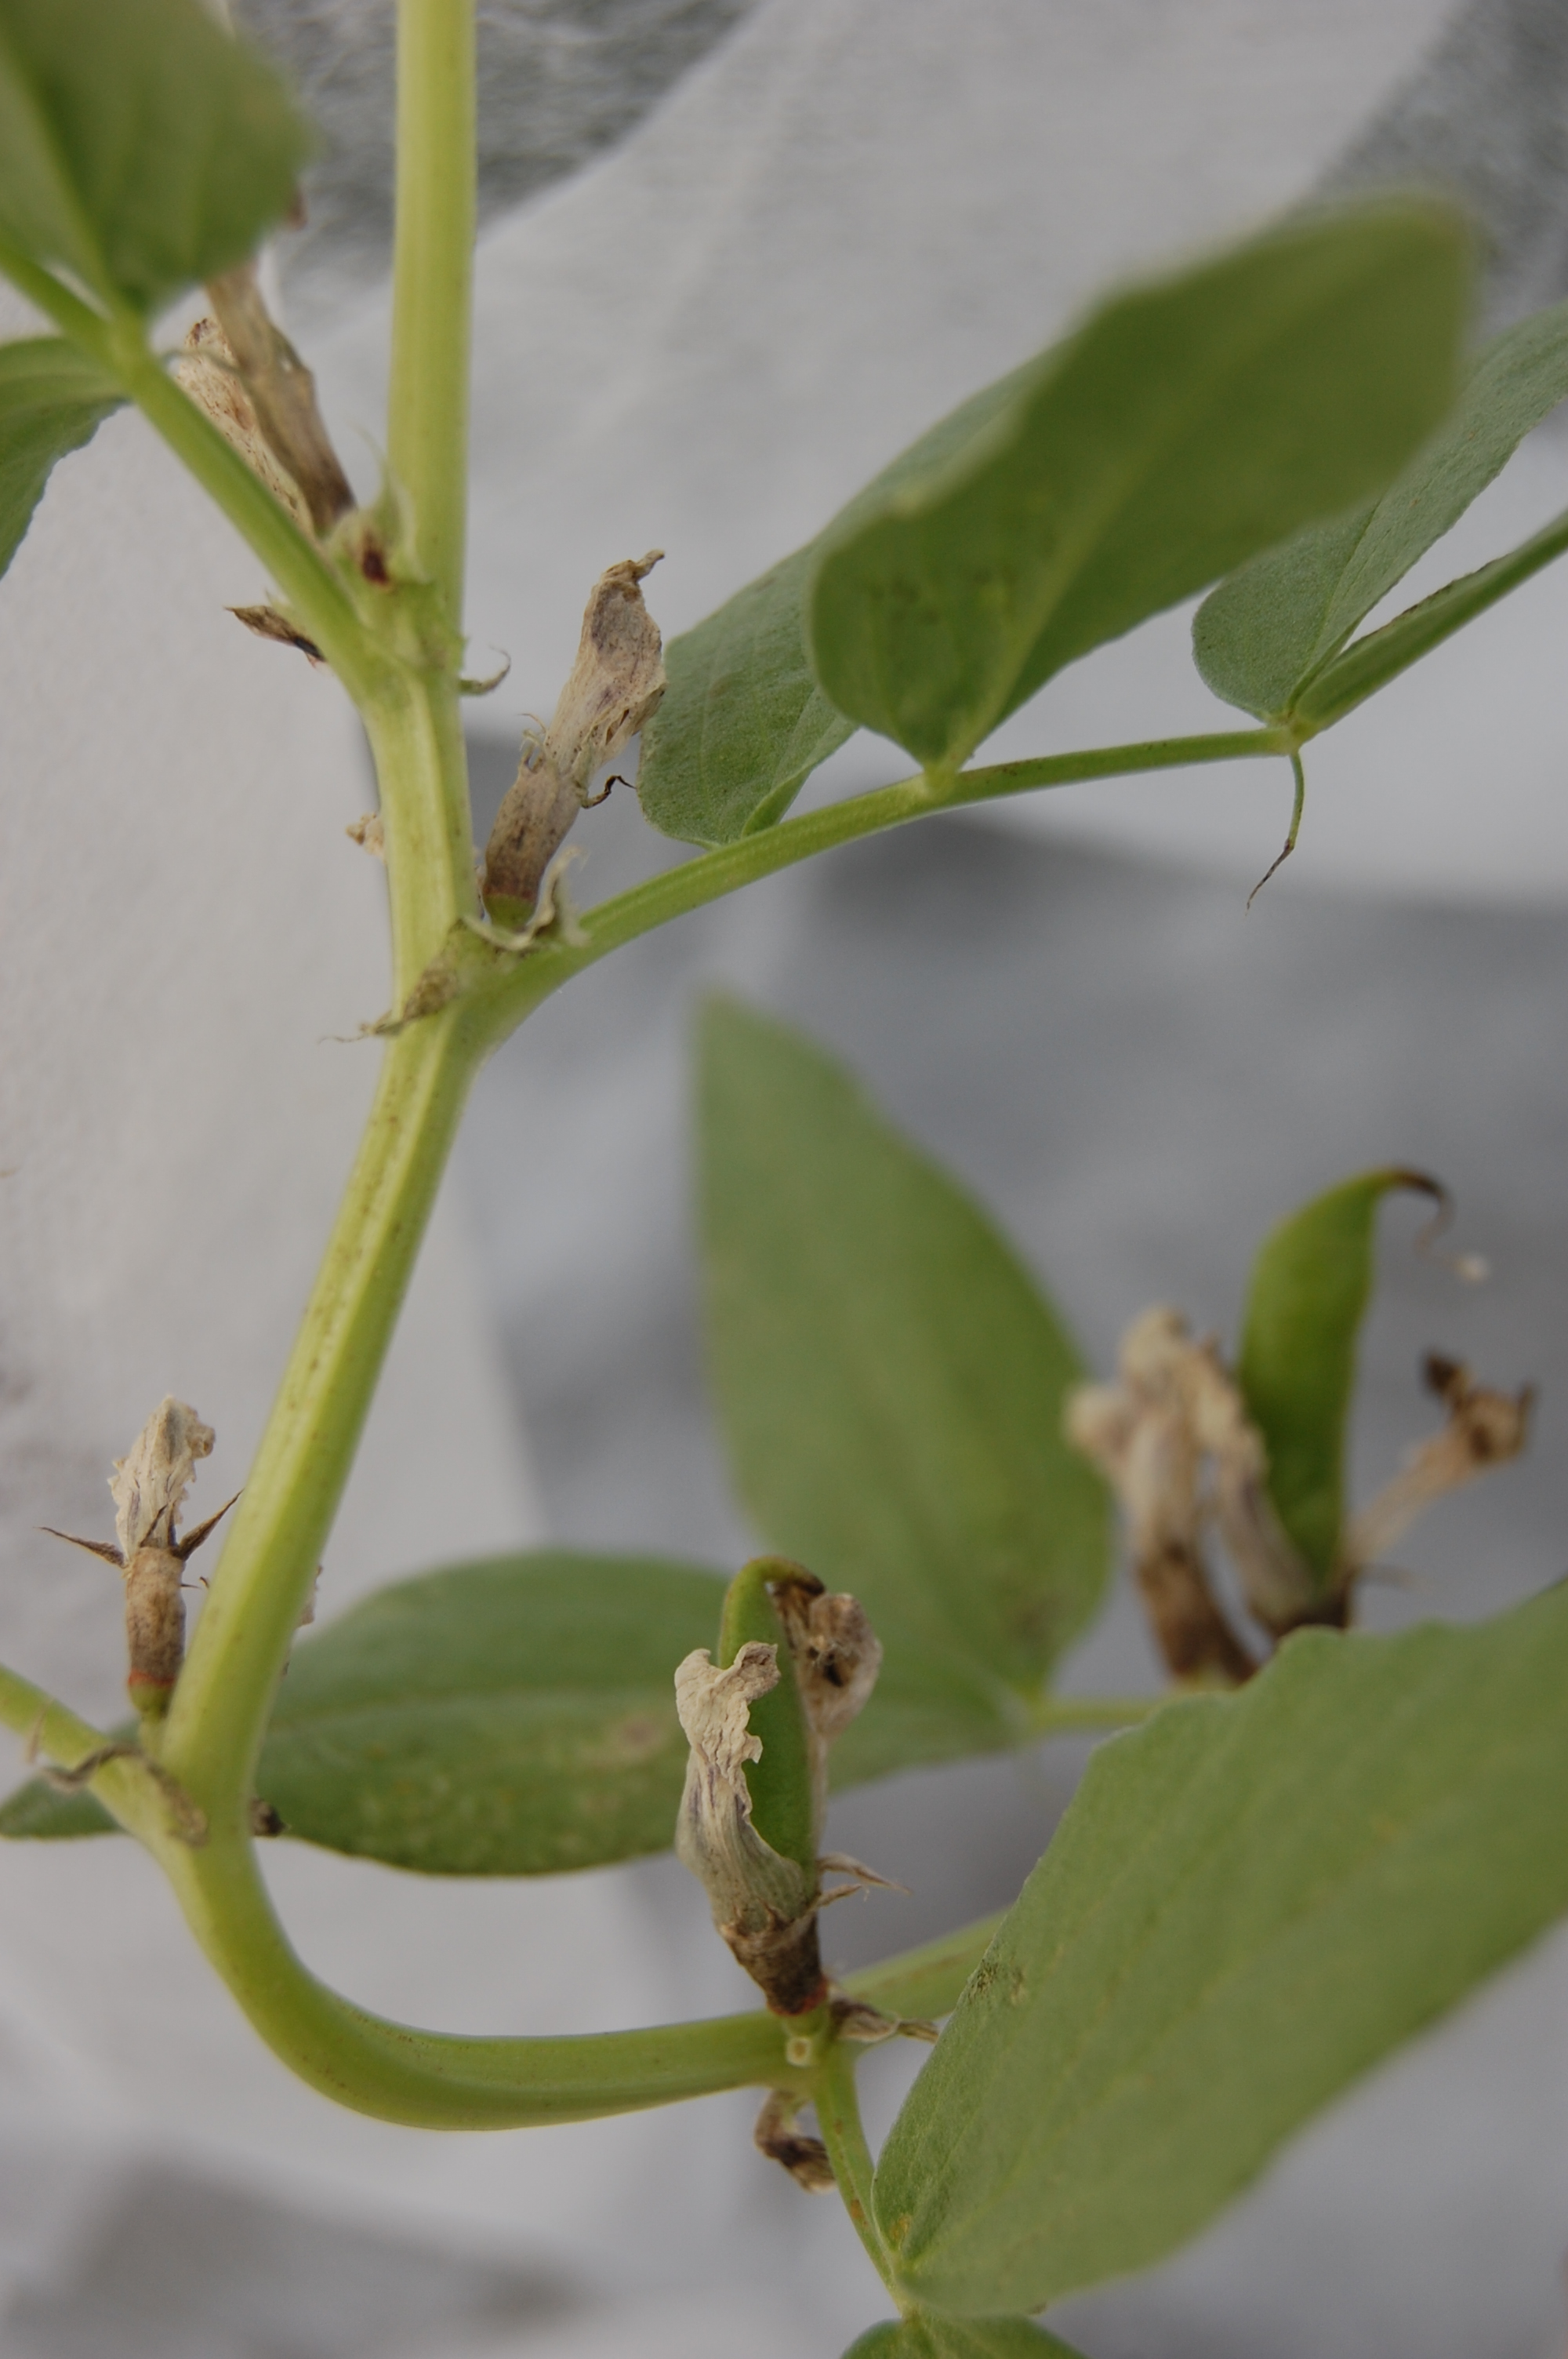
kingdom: Plantae
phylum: Tracheophyta
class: Magnoliopsida
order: Fabales
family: Fabaceae
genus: Vicia
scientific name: Vicia faba
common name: Broad bean
